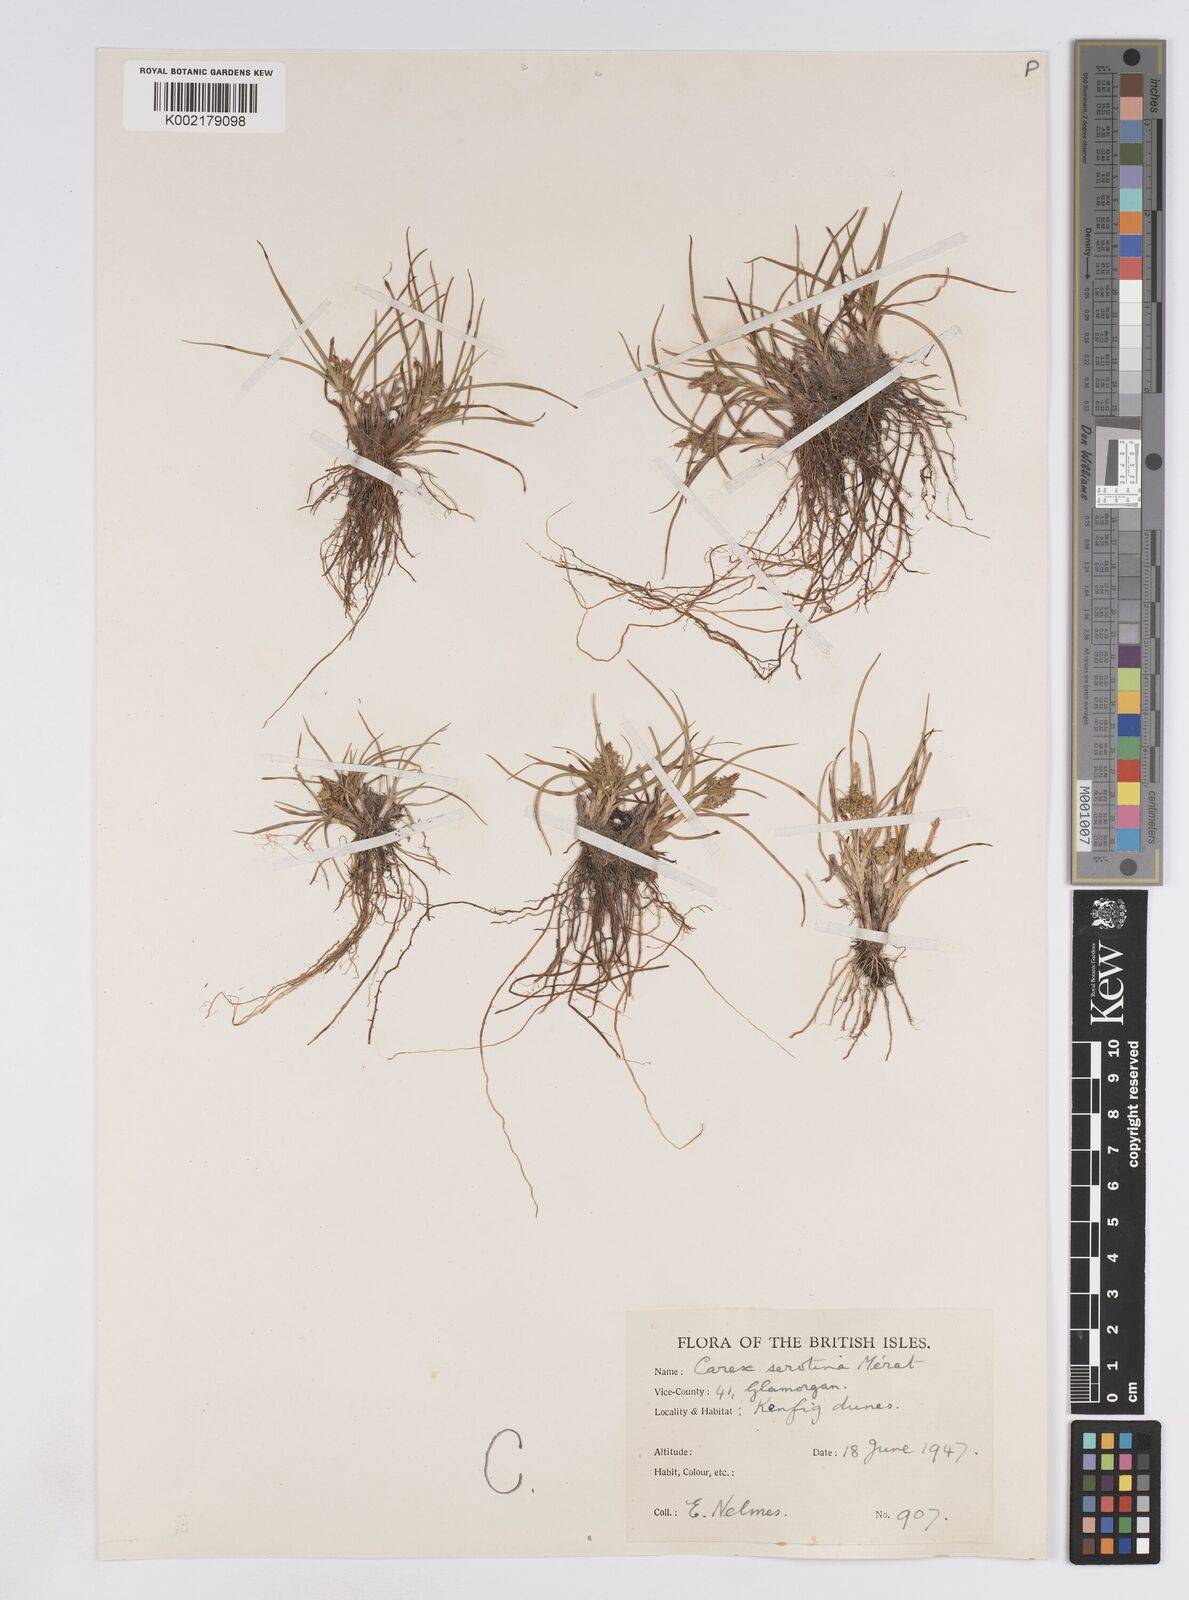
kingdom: Plantae
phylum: Tracheophyta
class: Liliopsida
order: Poales
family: Cyperaceae
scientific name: Cyperaceae
